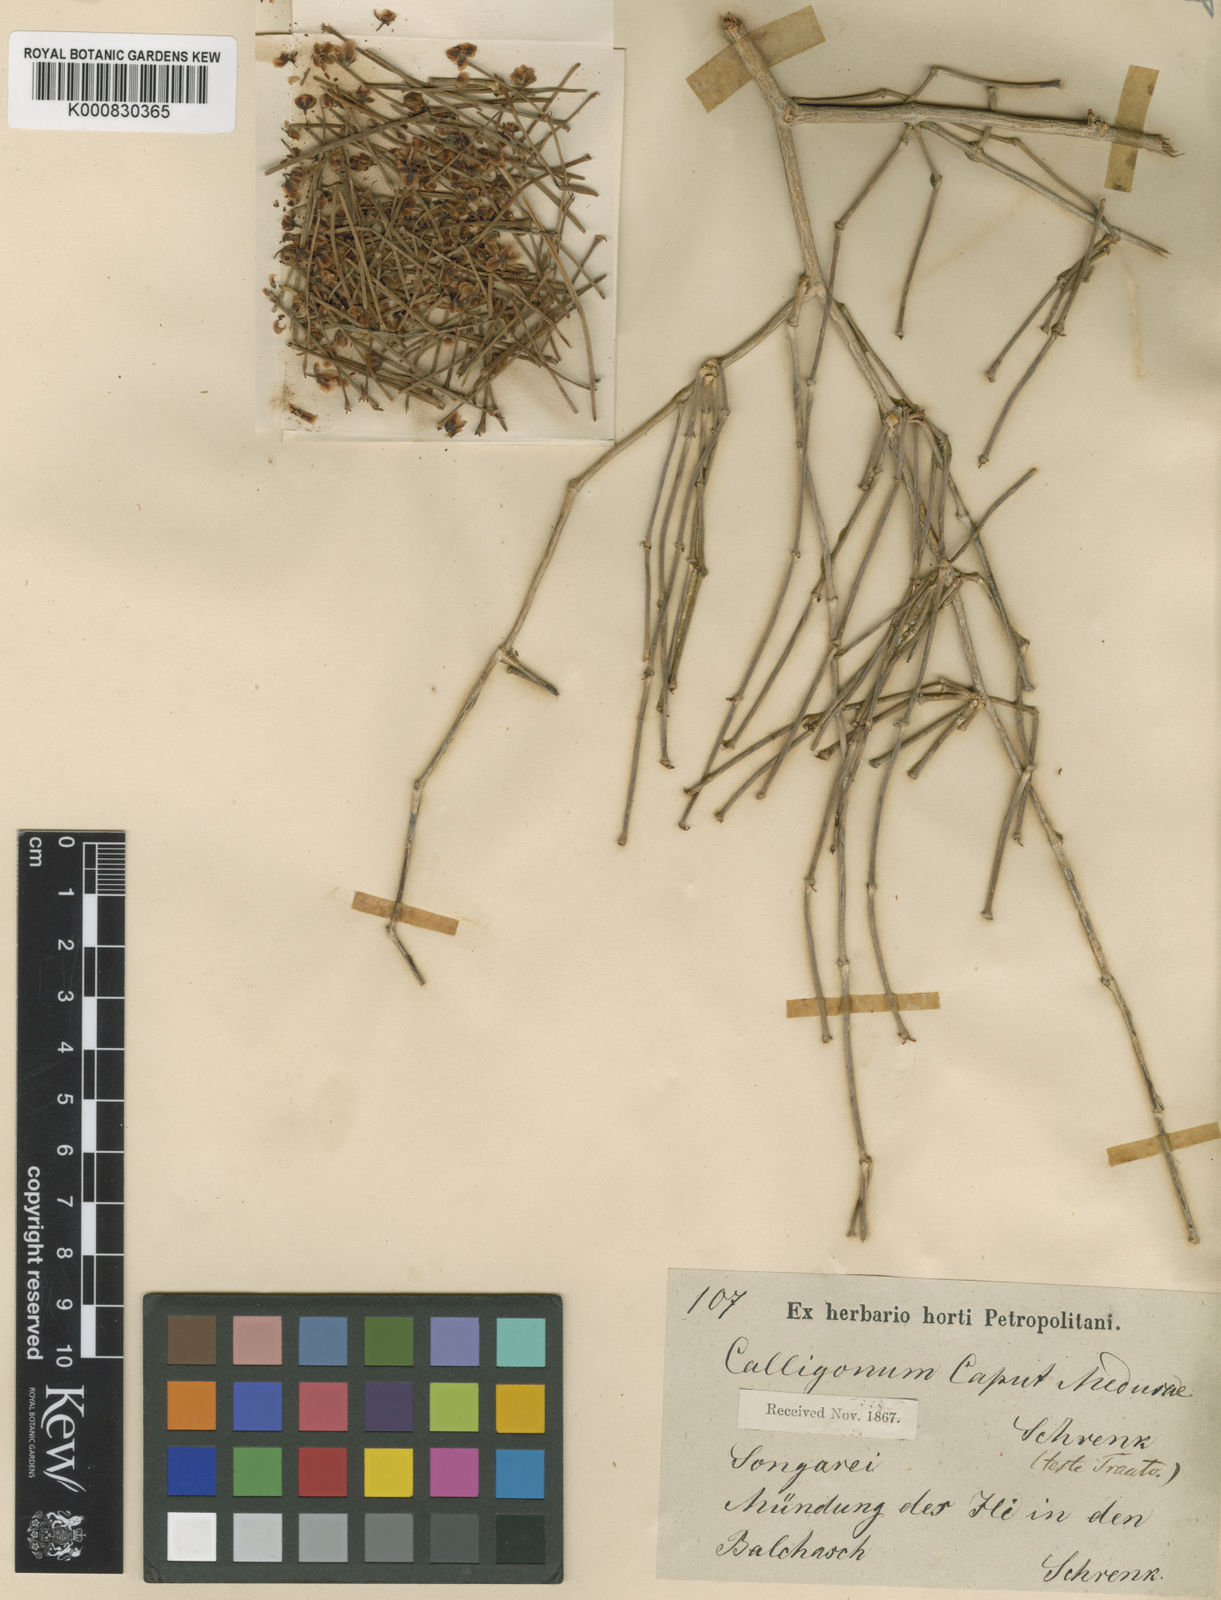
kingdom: Plantae
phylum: Tracheophyta
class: Magnoliopsida
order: Caryophyllales
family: Polygonaceae
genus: Calligonum
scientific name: Calligonum
